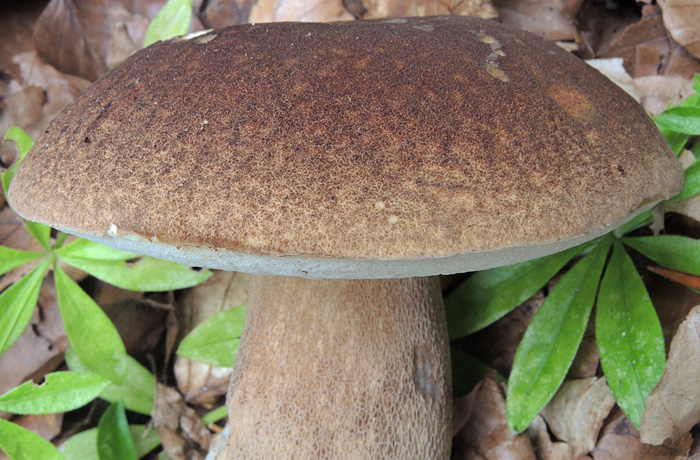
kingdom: Fungi
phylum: Basidiomycota
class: Agaricomycetes
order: Boletales
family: Boletaceae
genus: Boletus
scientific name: Boletus reticulatus
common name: sommer-rørhat
